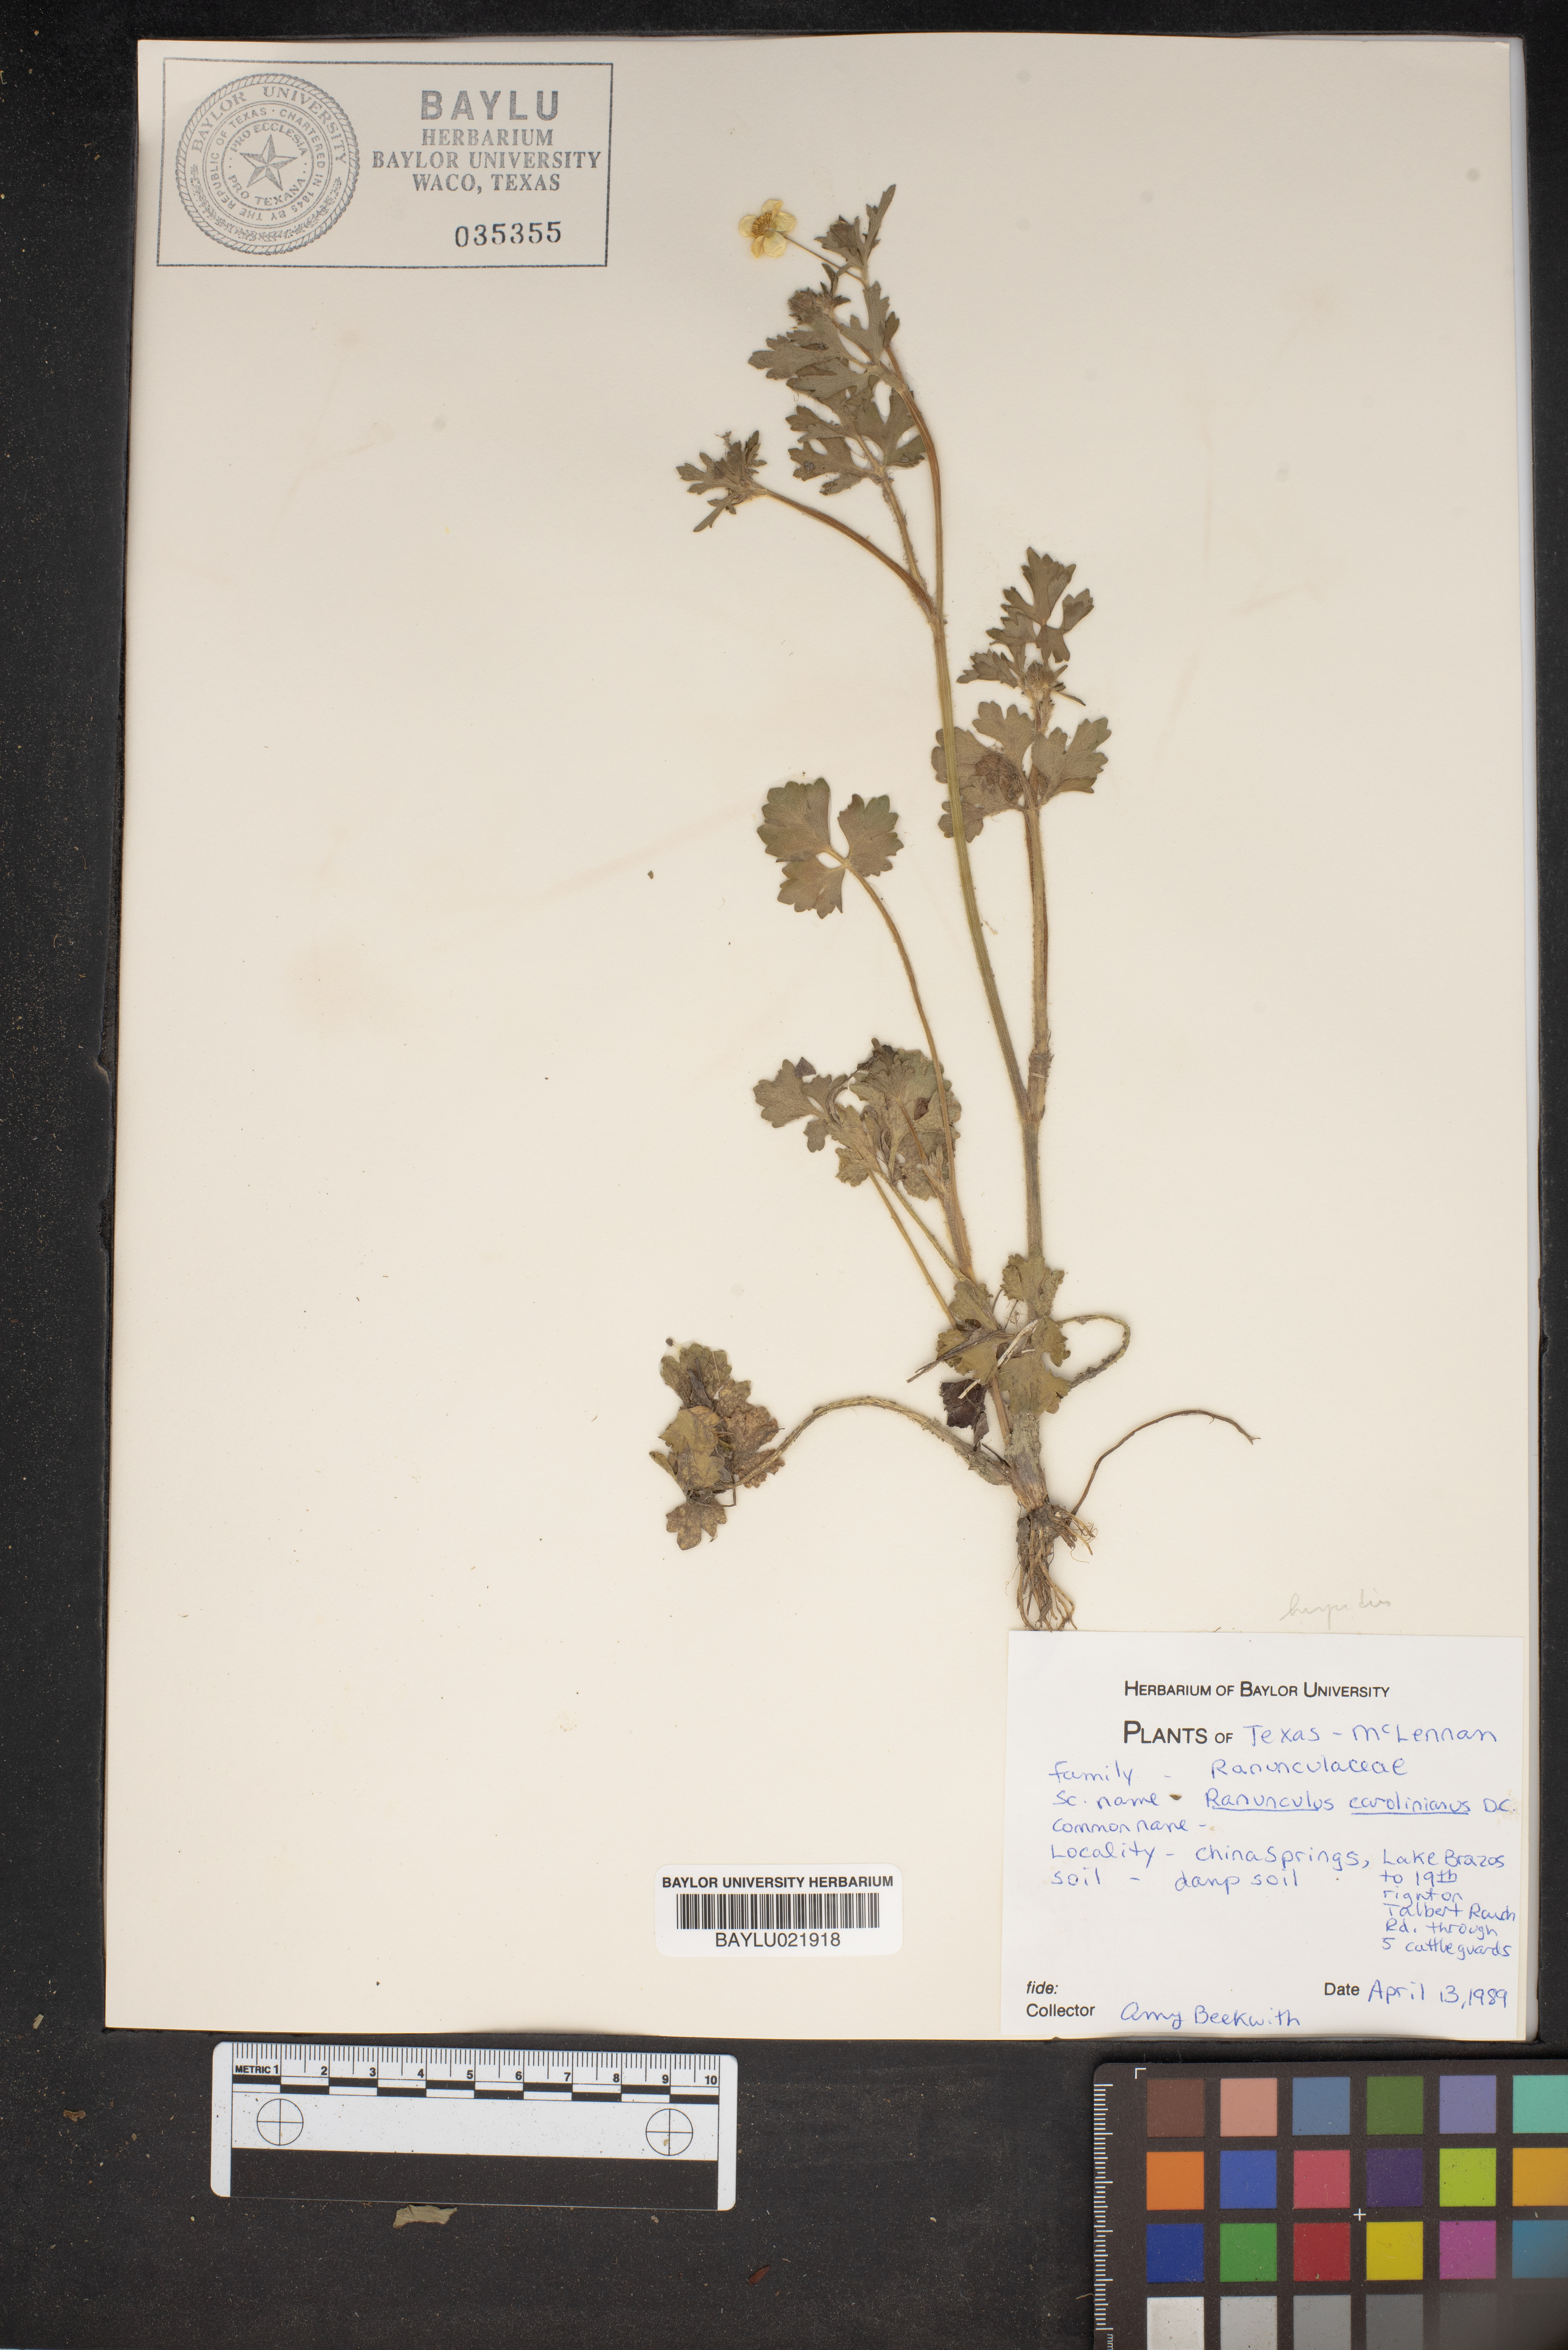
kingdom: Plantae
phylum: Tracheophyta
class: Magnoliopsida
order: Ranunculales
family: Ranunculaceae
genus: Ranunculus
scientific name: Ranunculus hispidus
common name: Bristly buttercup
